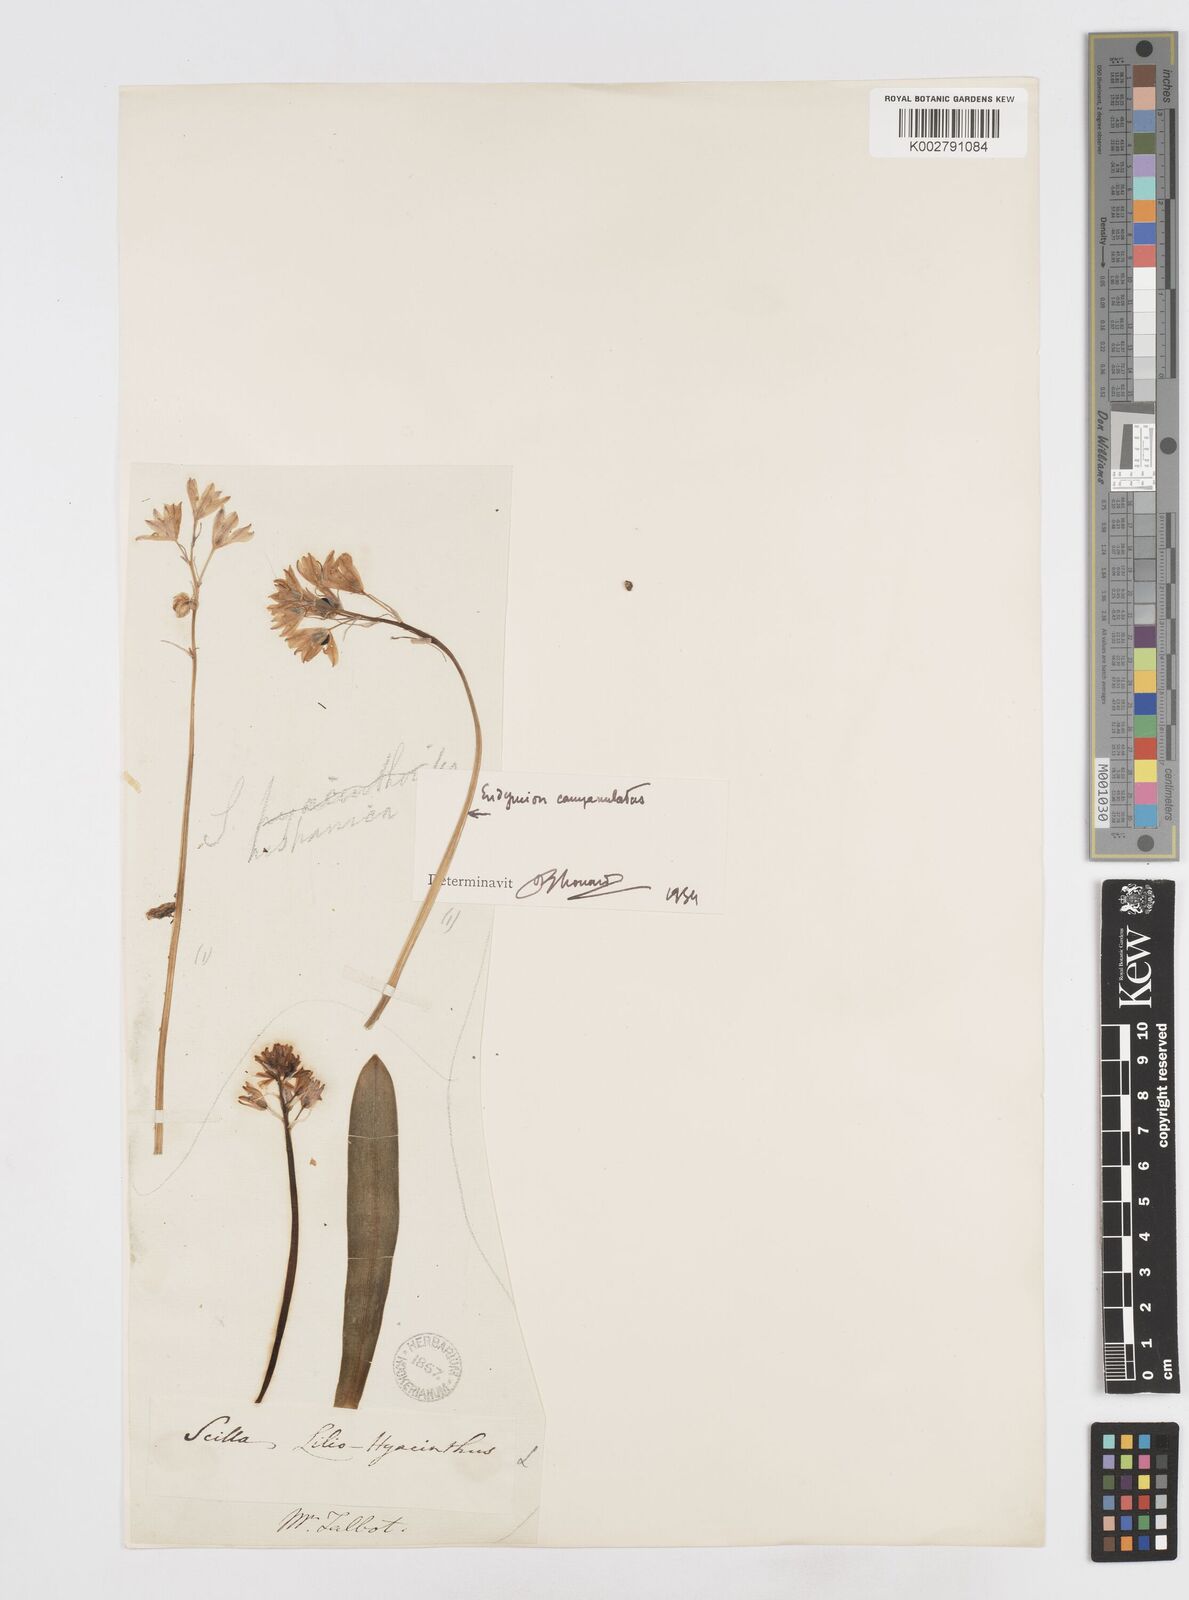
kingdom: Plantae
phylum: Tracheophyta
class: Liliopsida
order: Asparagales
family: Asparagaceae
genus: Hyacinthoides
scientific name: Hyacinthoides hispanica
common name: Spanish bluebell
